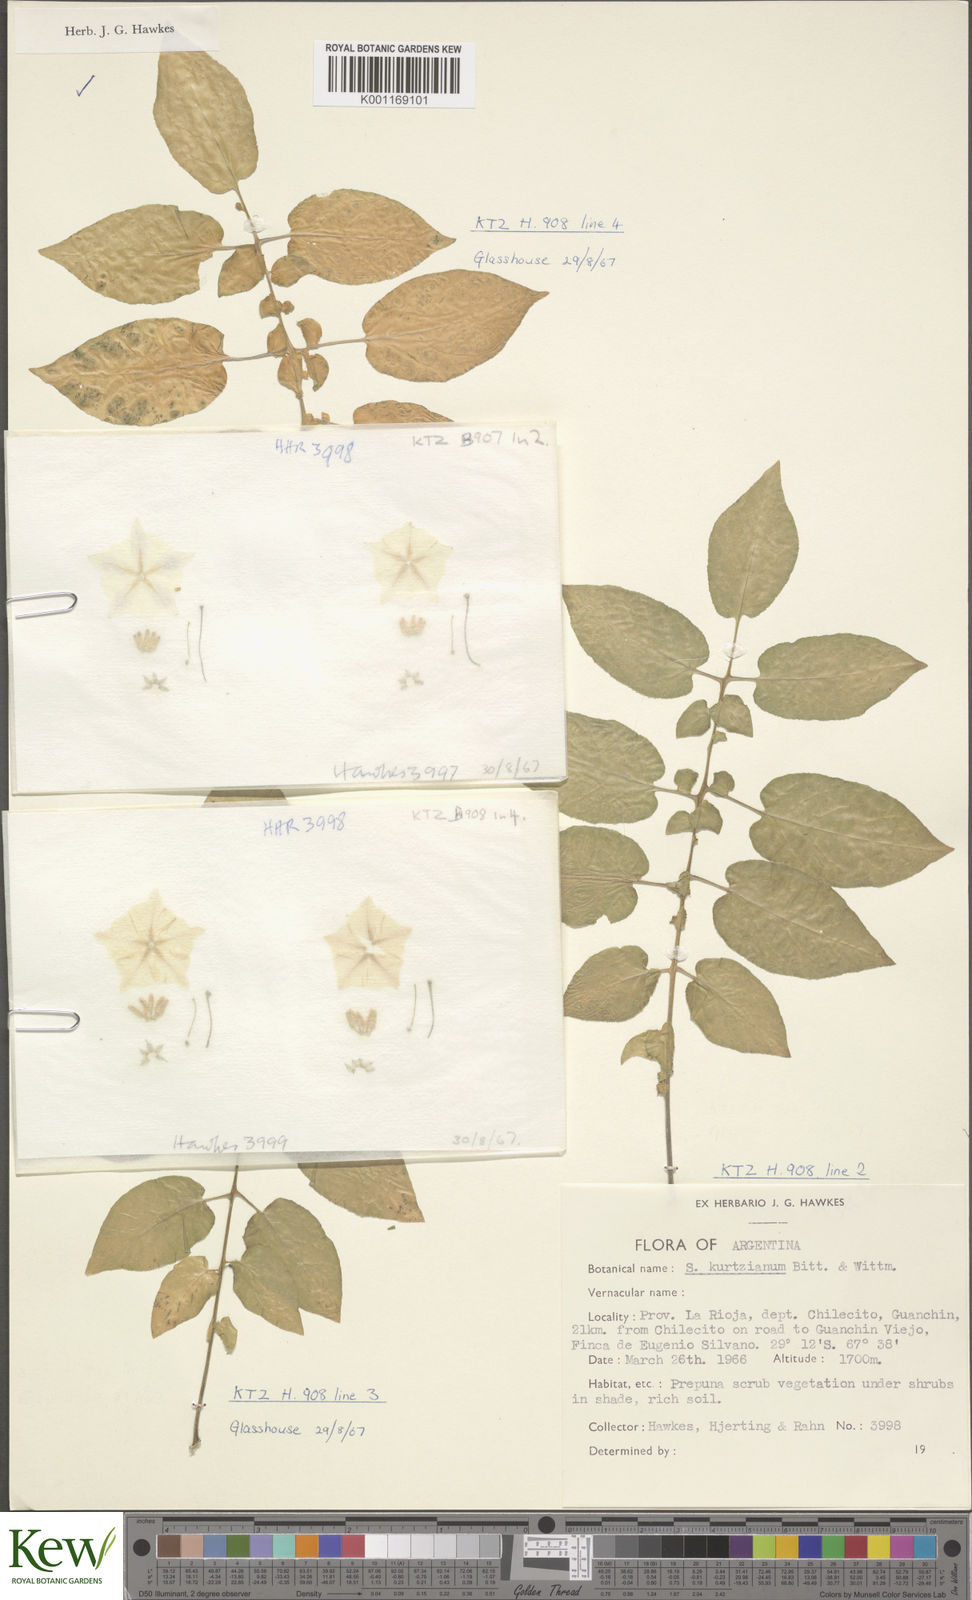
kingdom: Plantae
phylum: Tracheophyta
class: Magnoliopsida
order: Solanales
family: Solanaceae
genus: Solanum
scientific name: Solanum kurtzianum
